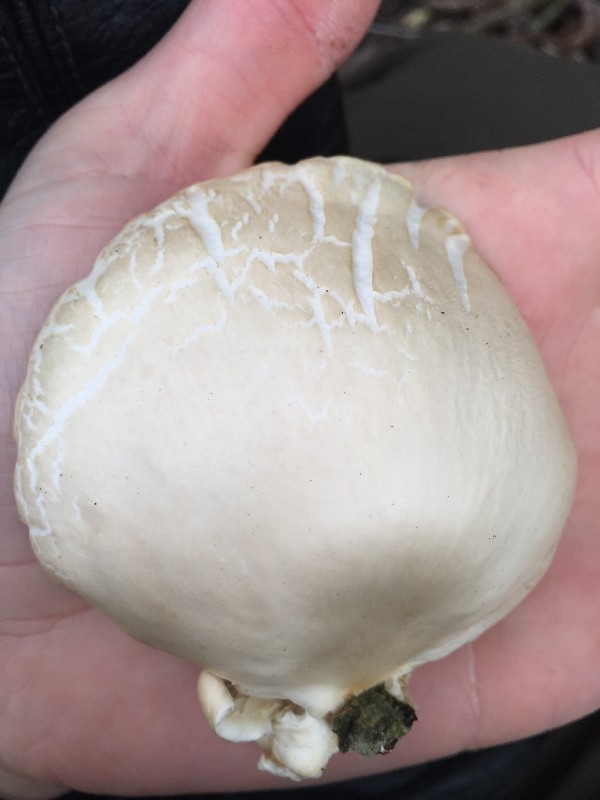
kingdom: Fungi
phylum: Basidiomycota
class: Agaricomycetes
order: Agaricales
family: Pleurotaceae
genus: Pleurotus
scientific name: Pleurotus ostreatus
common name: Oyster mushroom
